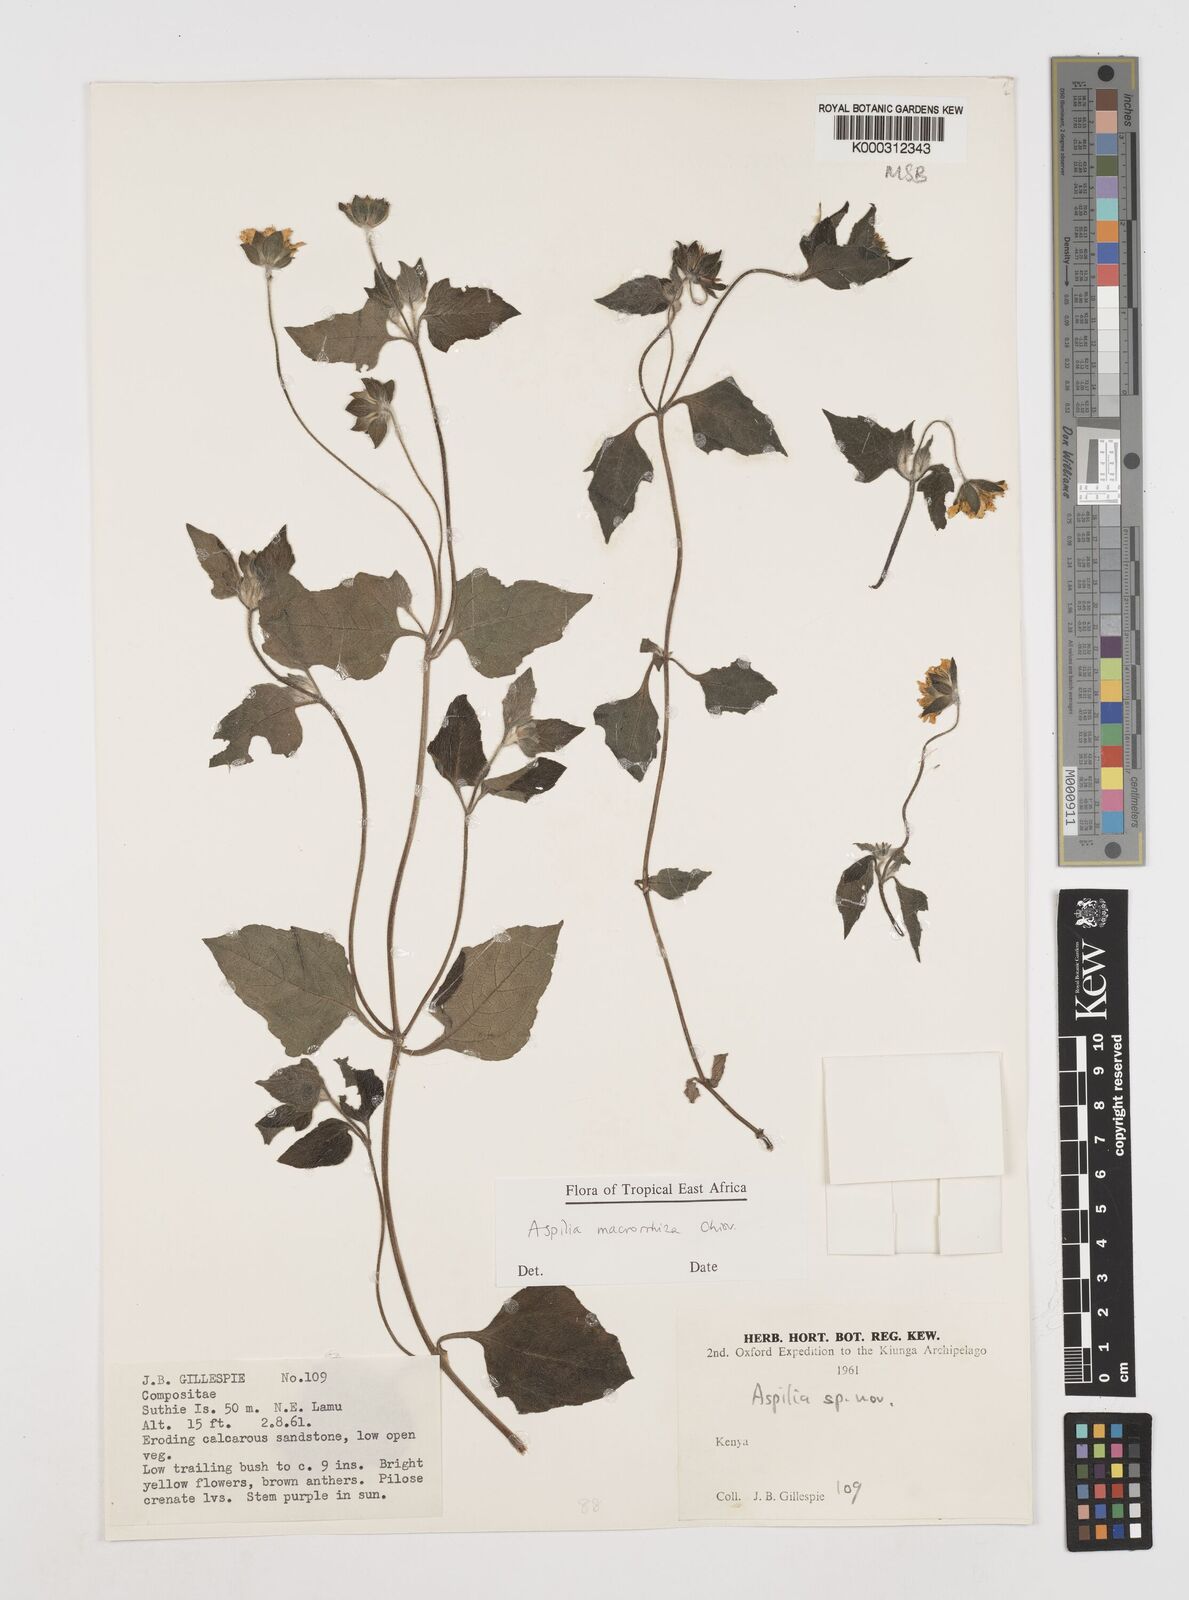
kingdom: Plantae
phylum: Tracheophyta
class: Magnoliopsida
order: Asterales
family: Asteraceae
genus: Aspilia
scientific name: Aspilia macrorrhiza
